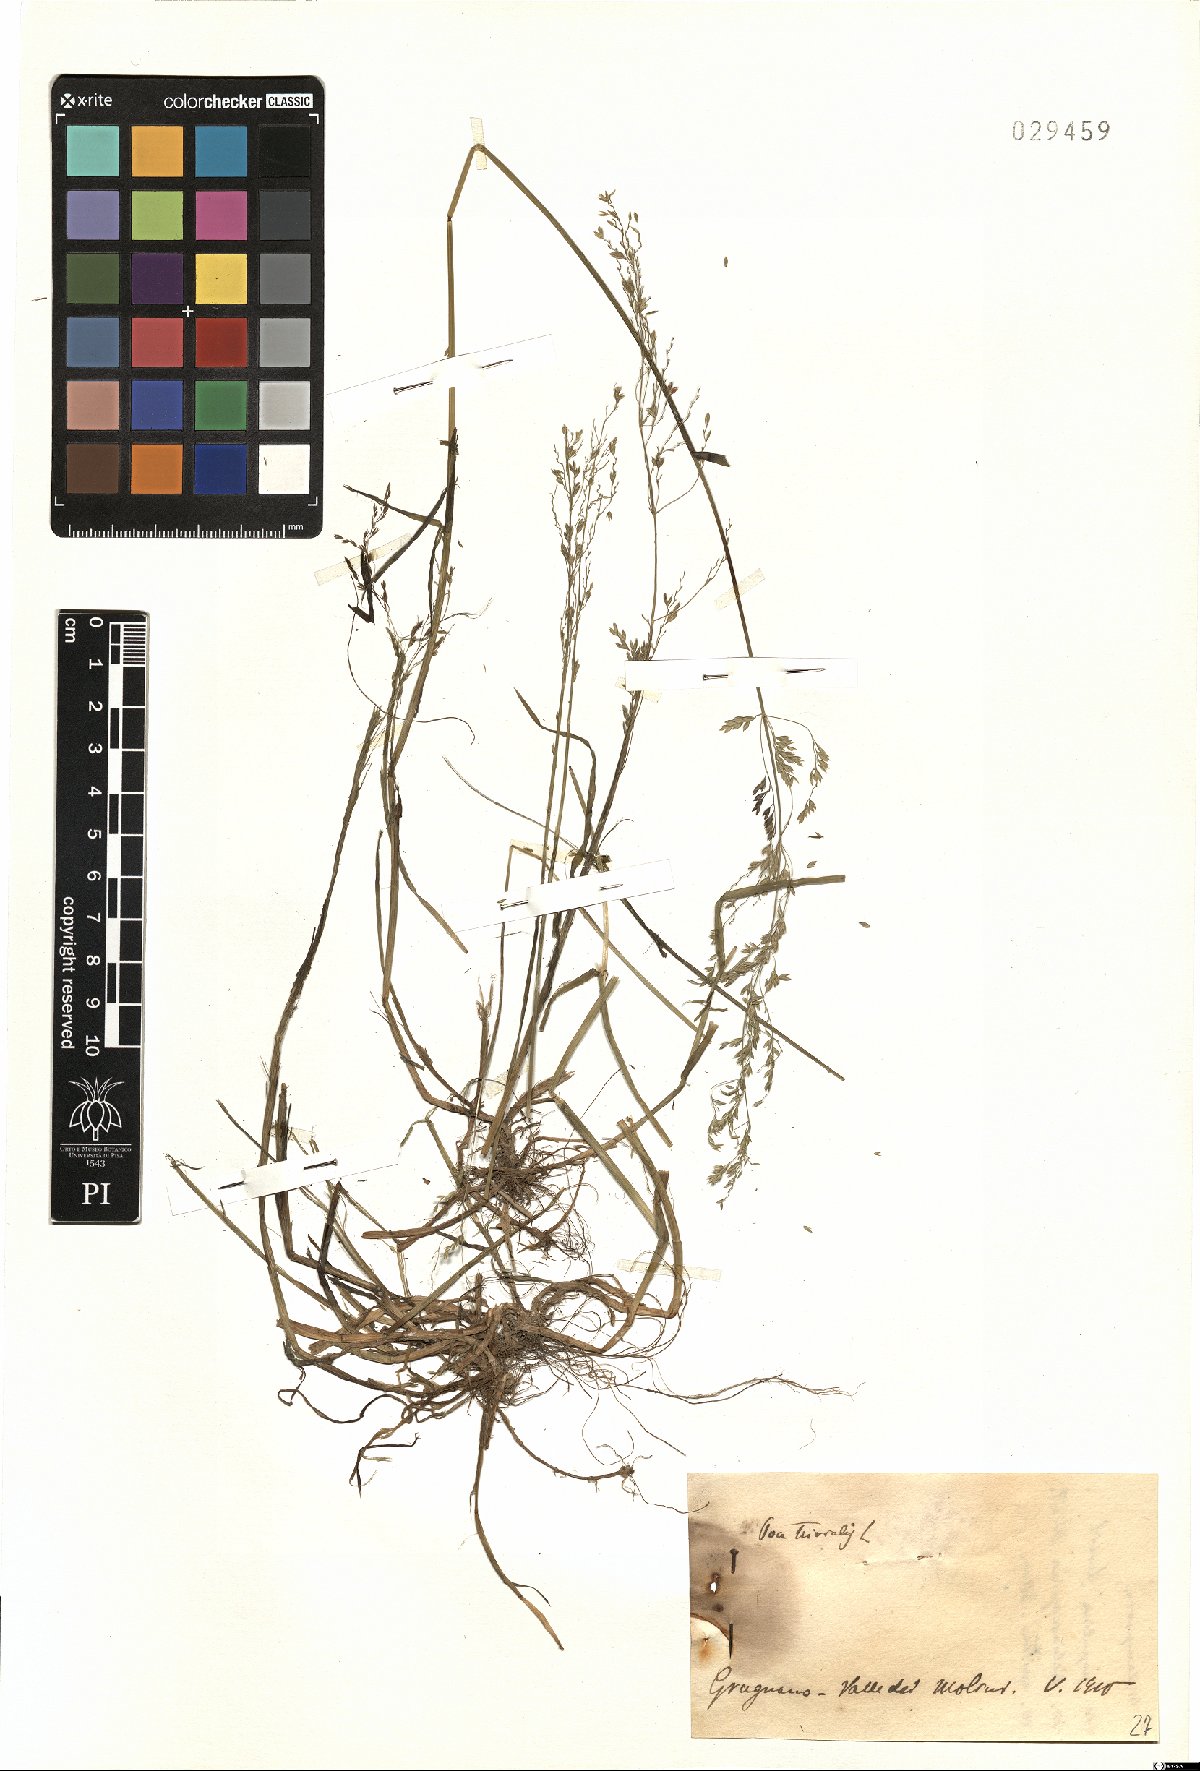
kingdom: Plantae
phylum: Tracheophyta
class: Liliopsida
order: Poales
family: Poaceae
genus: Poa
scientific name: Poa trivialis
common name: Rough bluegrass
